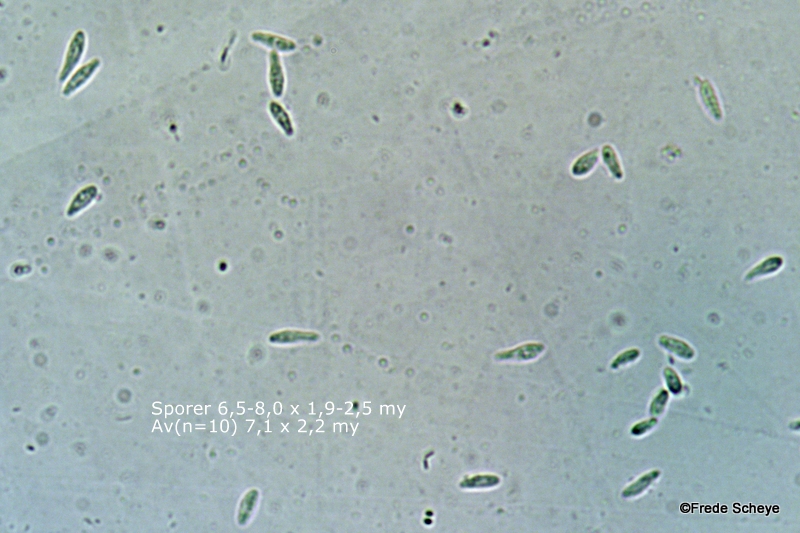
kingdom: Fungi
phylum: Ascomycota
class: Leotiomycetes
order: Helotiales
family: Lachnaceae
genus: Lachnum
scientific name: Lachnum impudicum
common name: vinter-frynseskive
